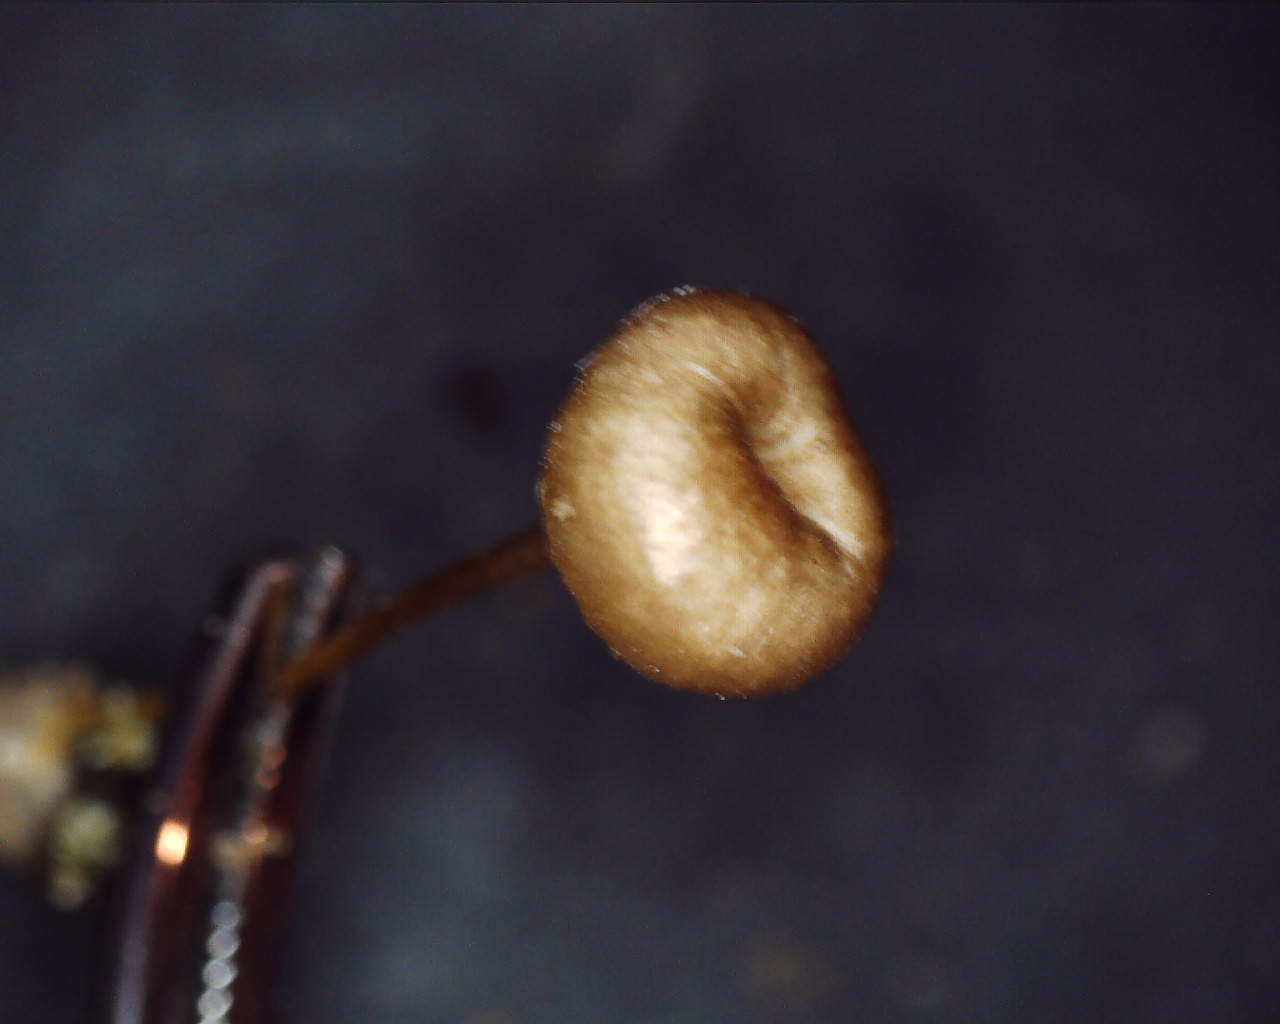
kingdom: Fungi
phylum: Basidiomycota
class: Agaricomycetes
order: Agaricales
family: Tricholomataceae
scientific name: Tricholomataceae
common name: ridderhatfamilien
